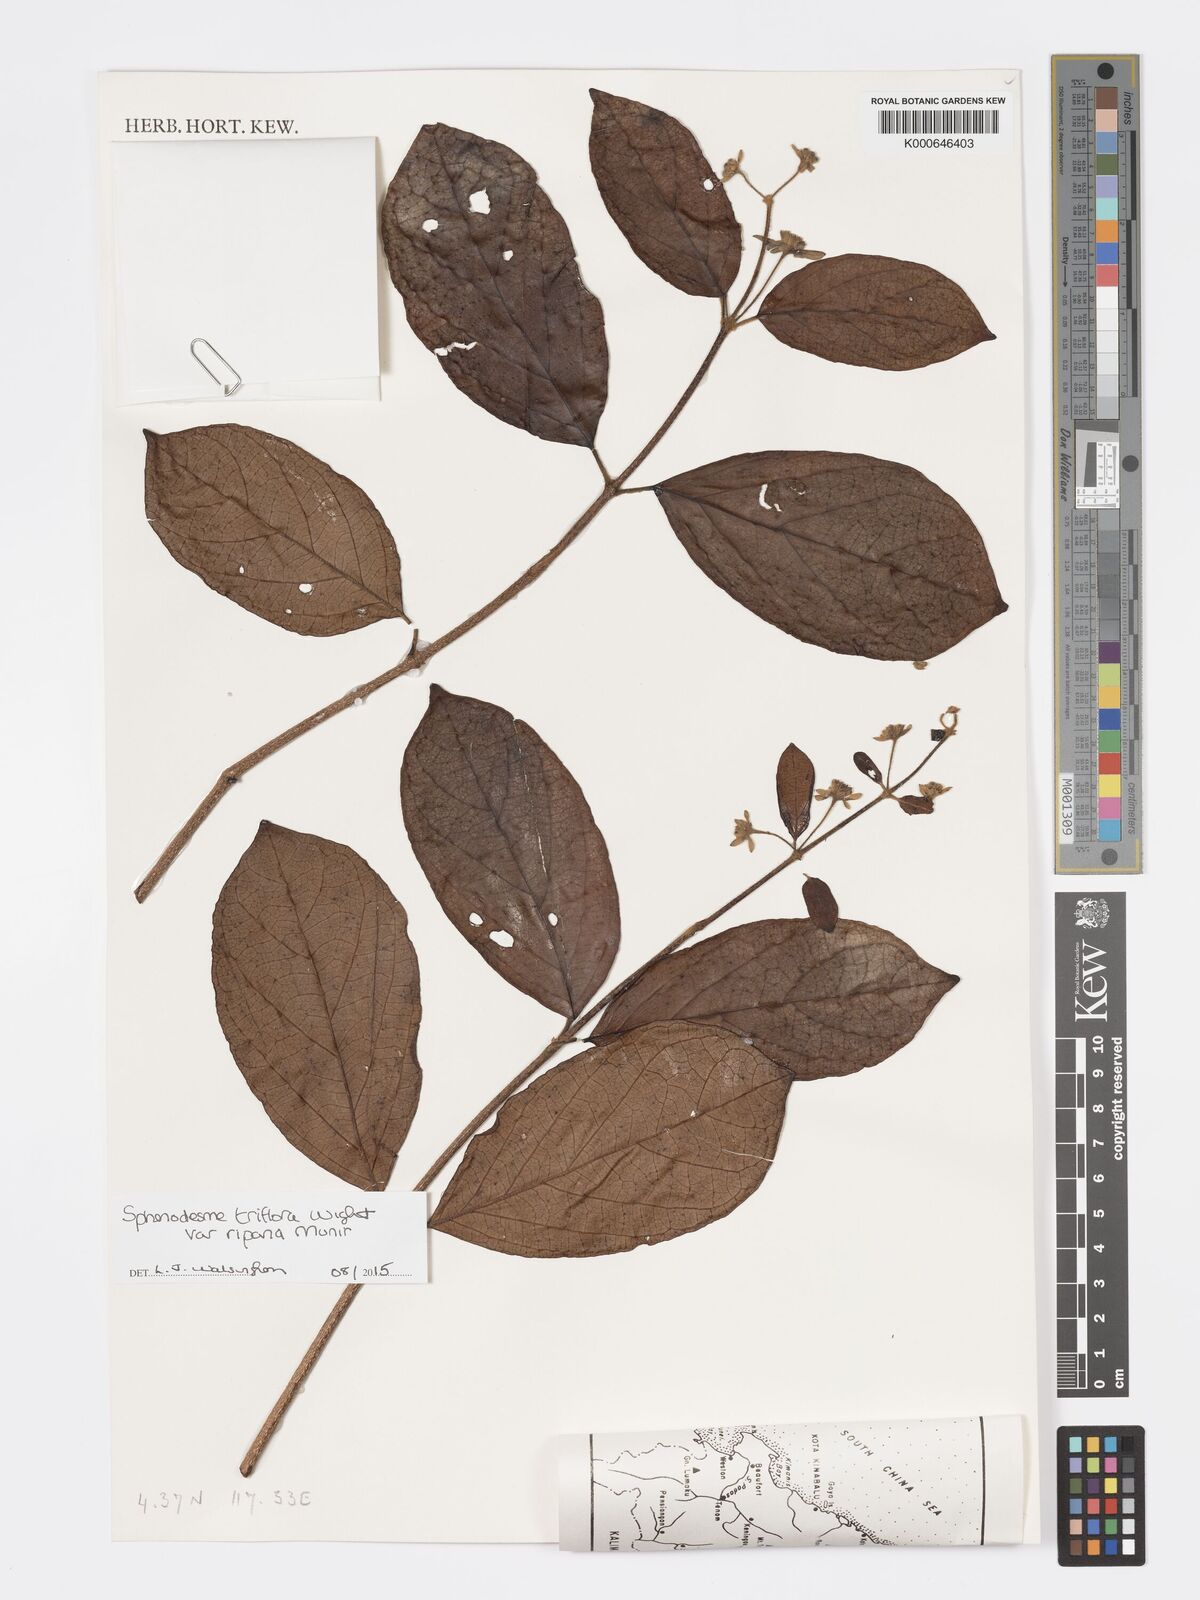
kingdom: Plantae
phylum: Tracheophyta
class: Magnoliopsida
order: Lamiales
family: Lamiaceae
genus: Sphenodesme
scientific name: Sphenodesme triflora
